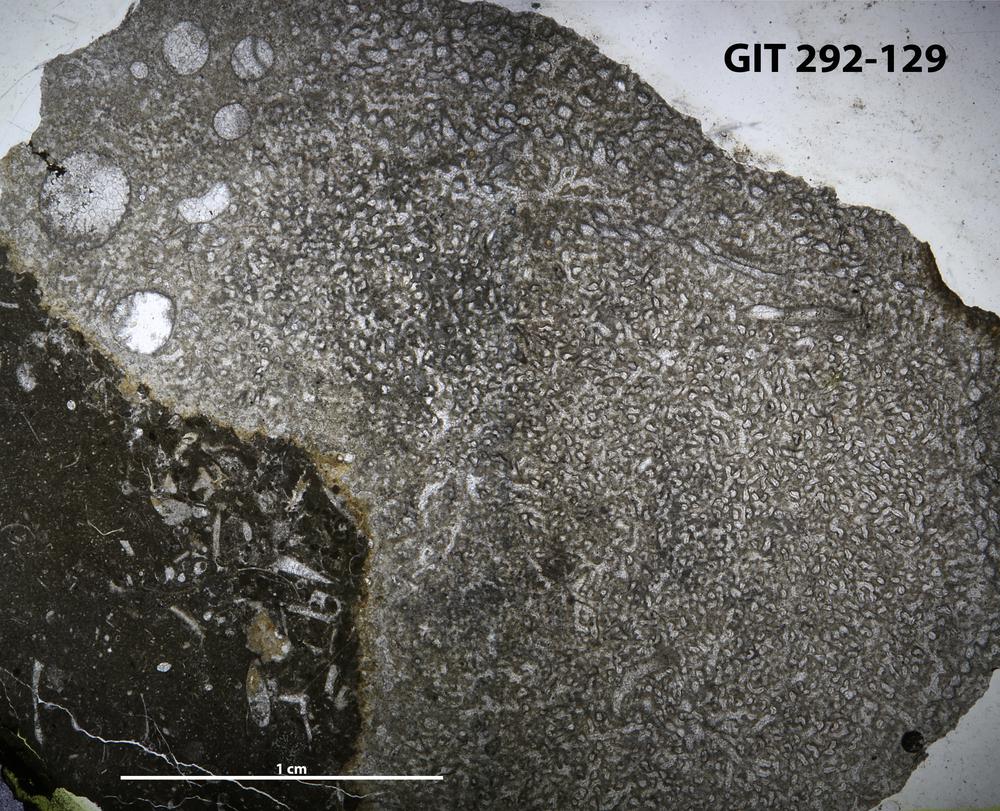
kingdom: Animalia
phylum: Porifera
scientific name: Porifera
